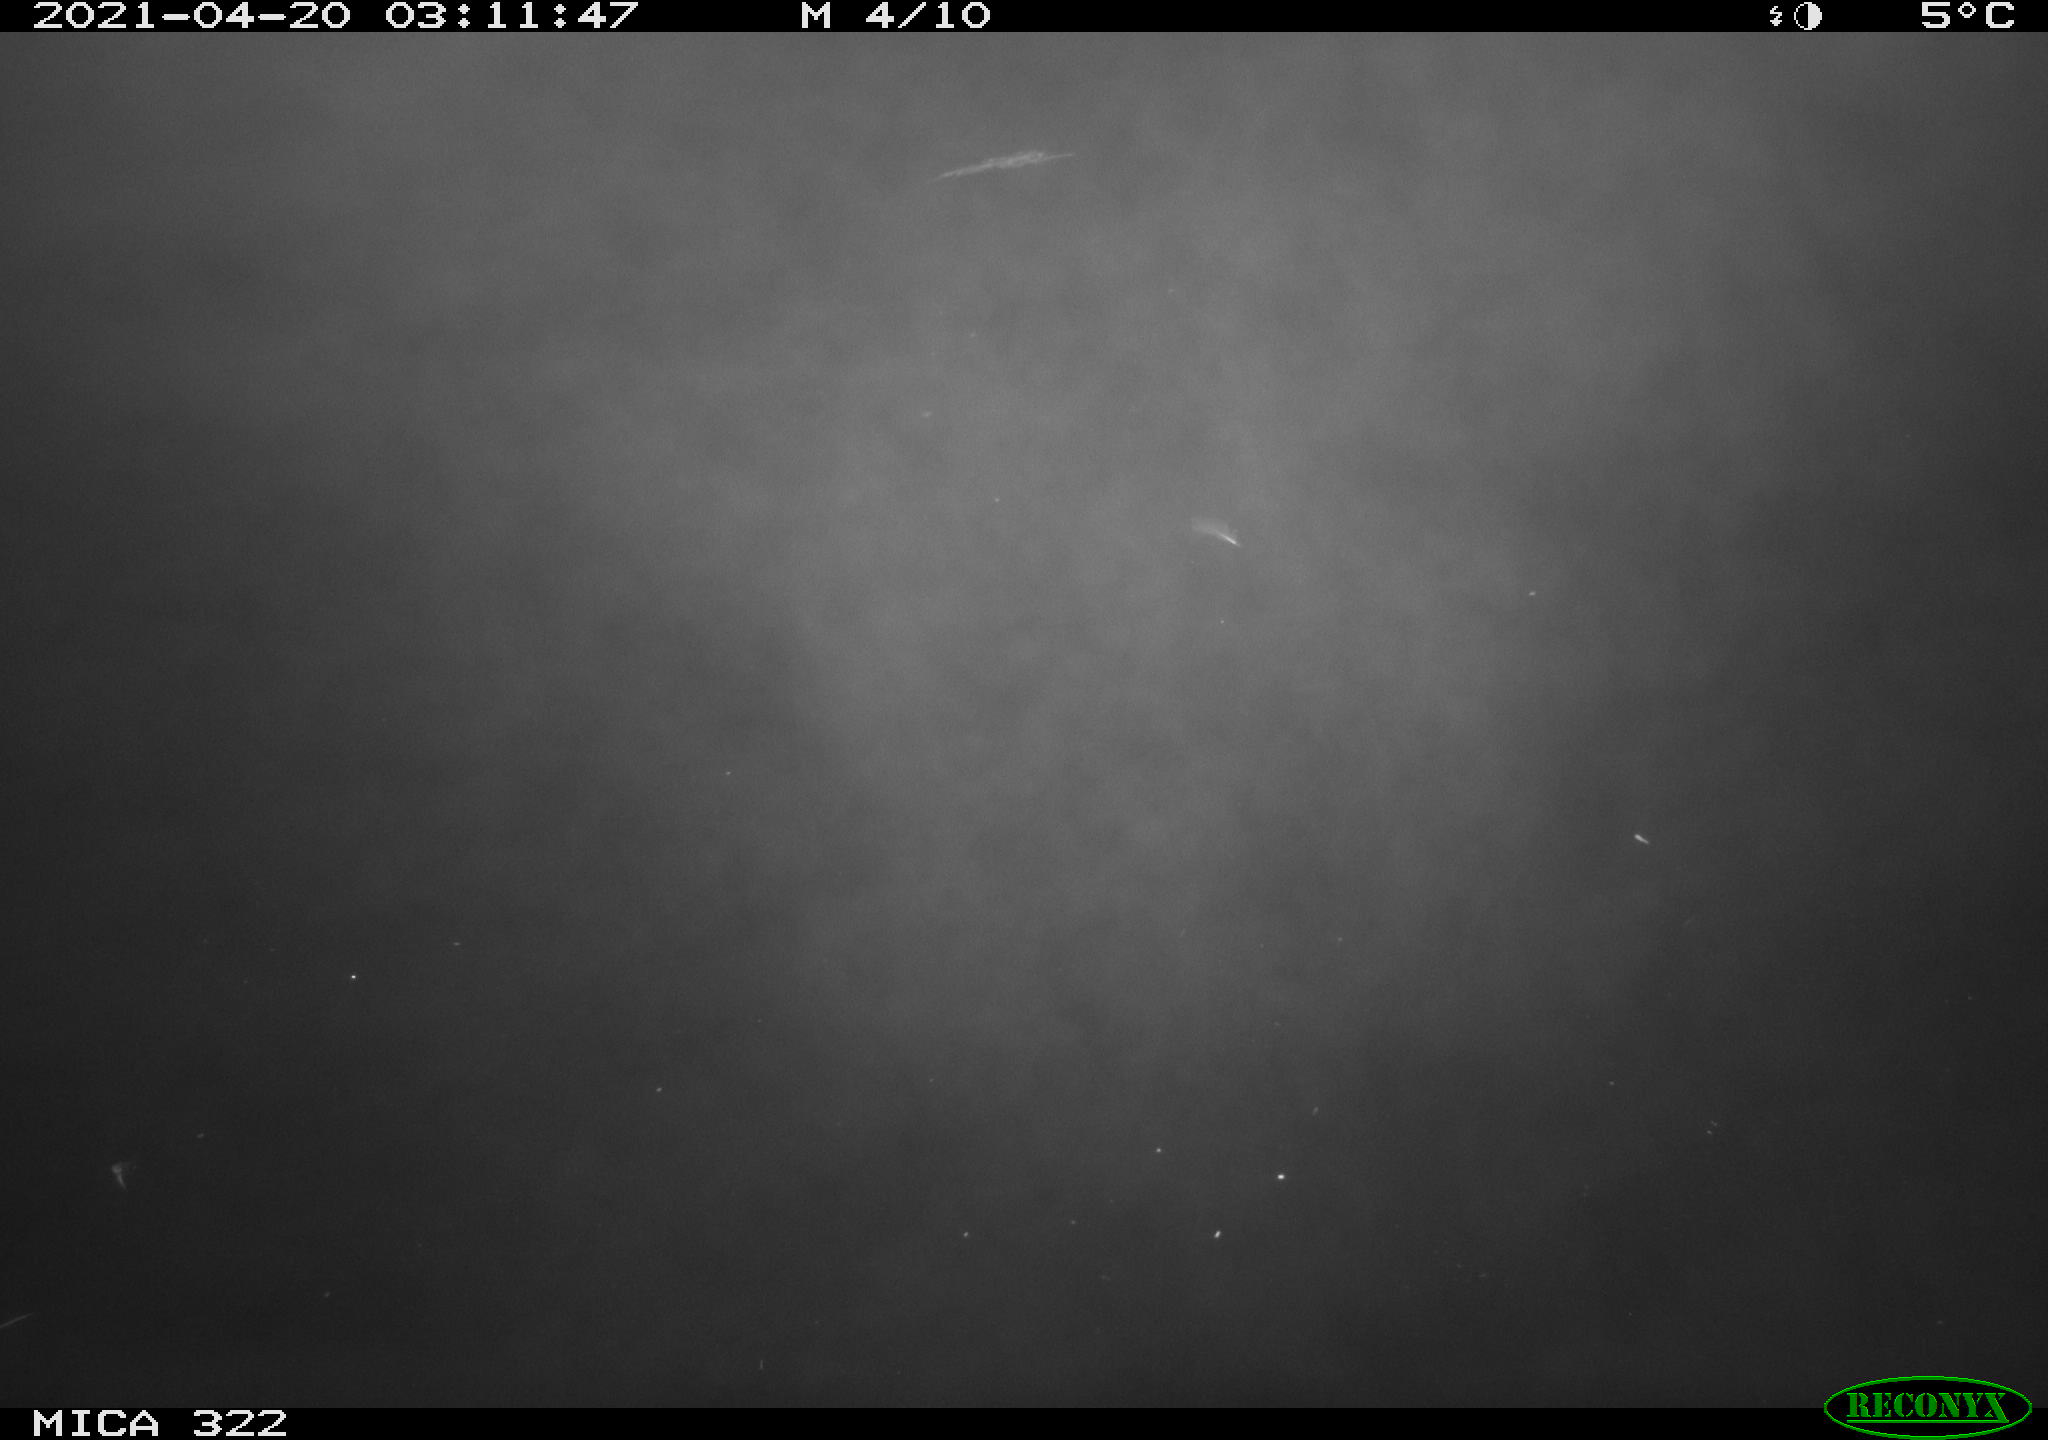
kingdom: Animalia
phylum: Chordata
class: Aves
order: Anseriformes
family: Anatidae
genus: Anas
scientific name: Anas platyrhynchos
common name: Mallard
